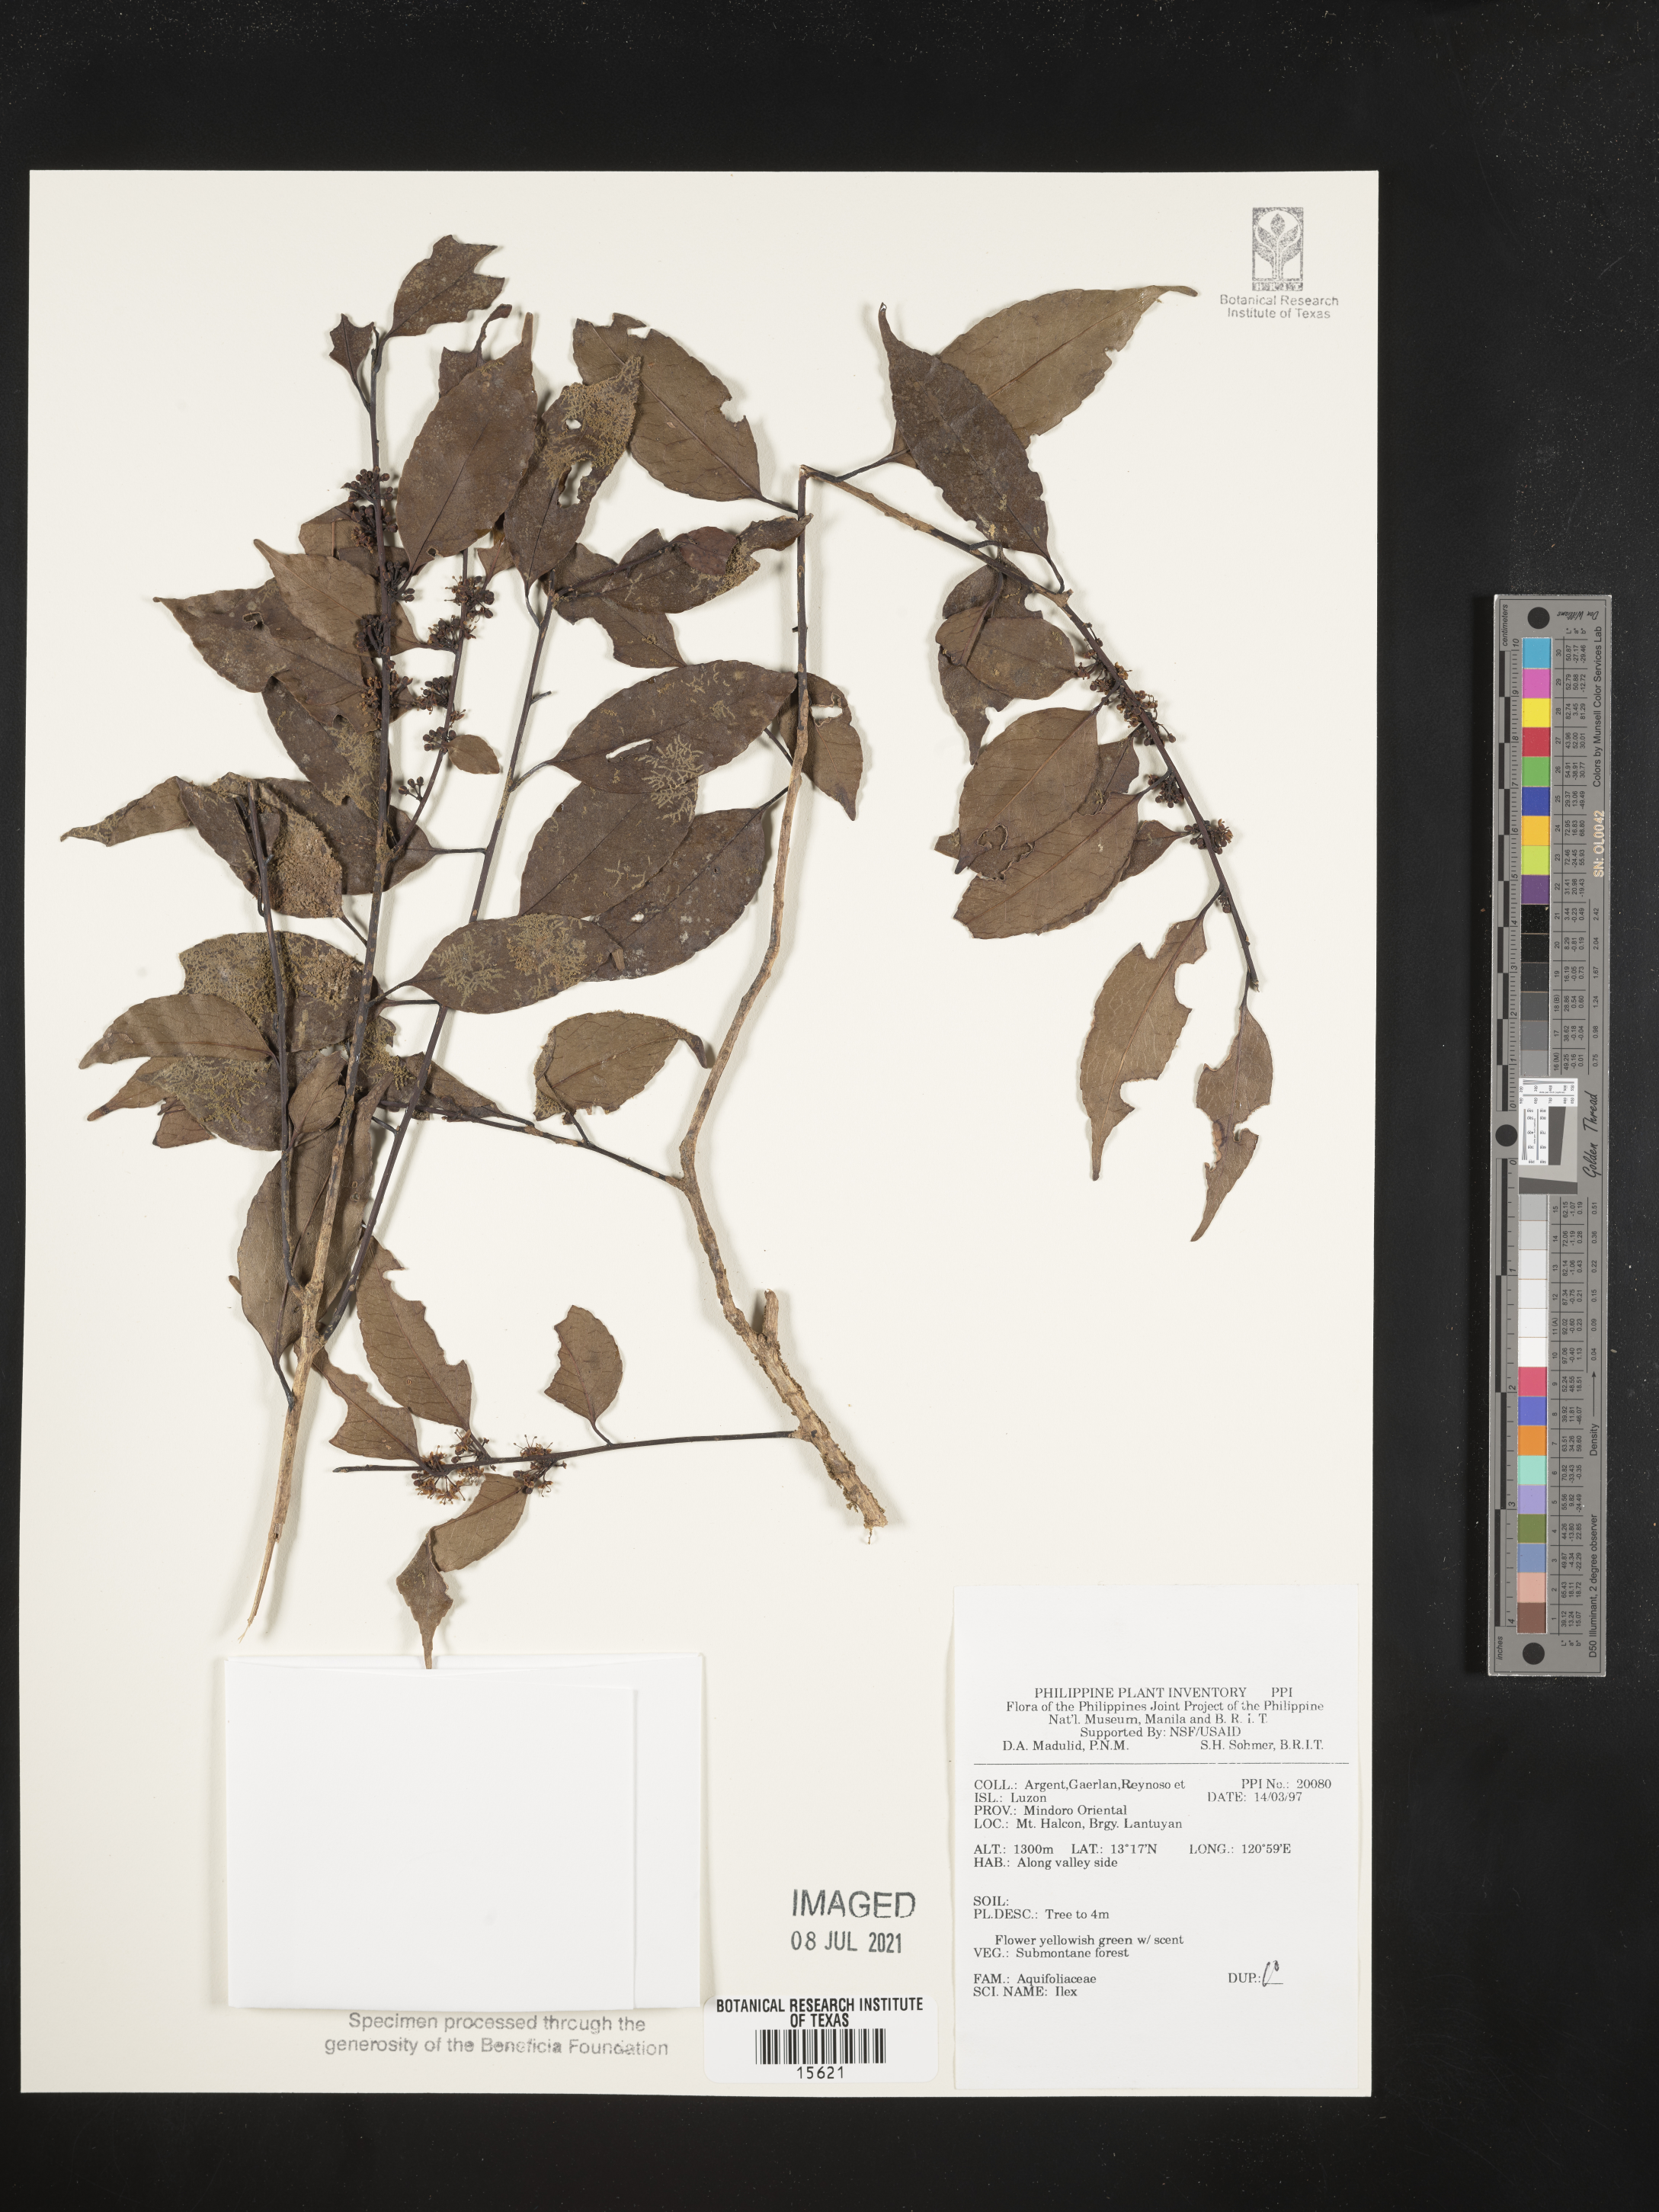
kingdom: Plantae
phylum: Tracheophyta
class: Magnoliopsida
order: Aquifoliales
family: Aquifoliaceae
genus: Ilex
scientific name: Ilex
